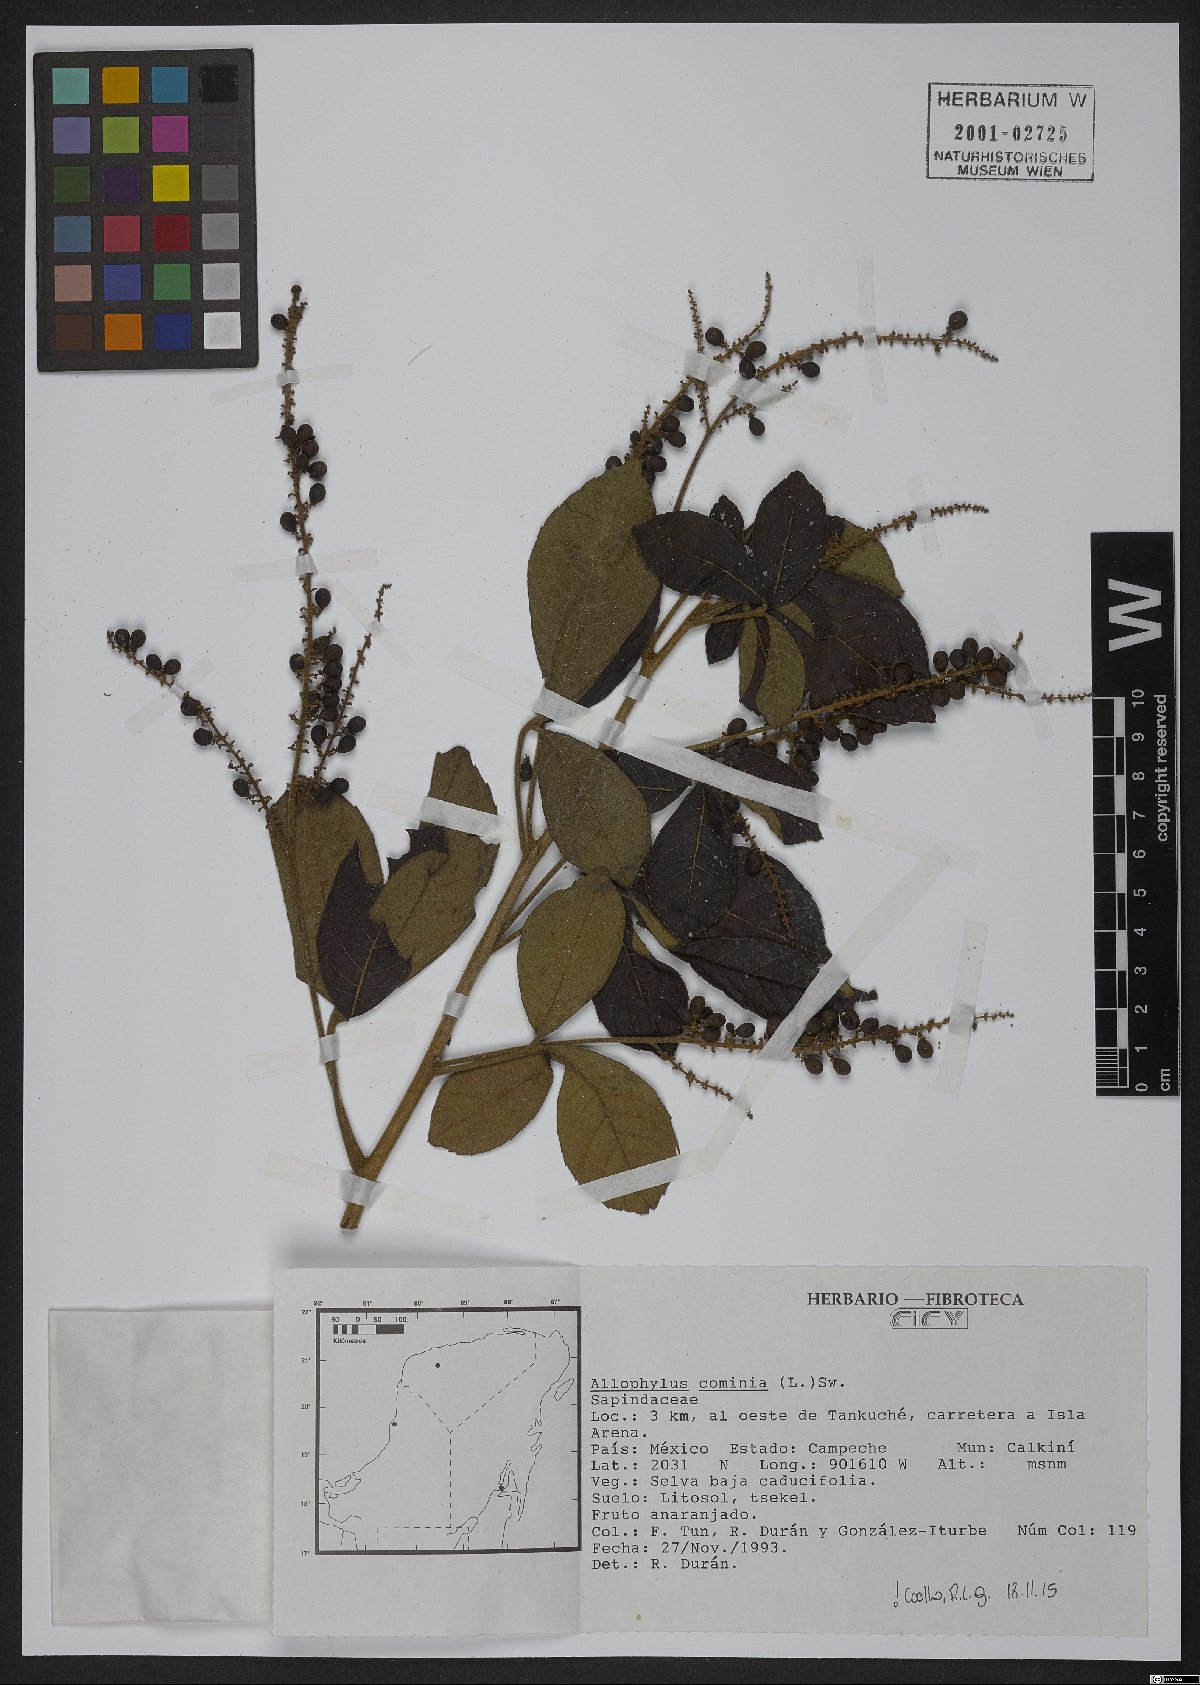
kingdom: Plantae
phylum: Tracheophyta
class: Magnoliopsida
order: Sapindales
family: Sapindaceae
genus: Allophylus
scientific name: Allophylus cominia
